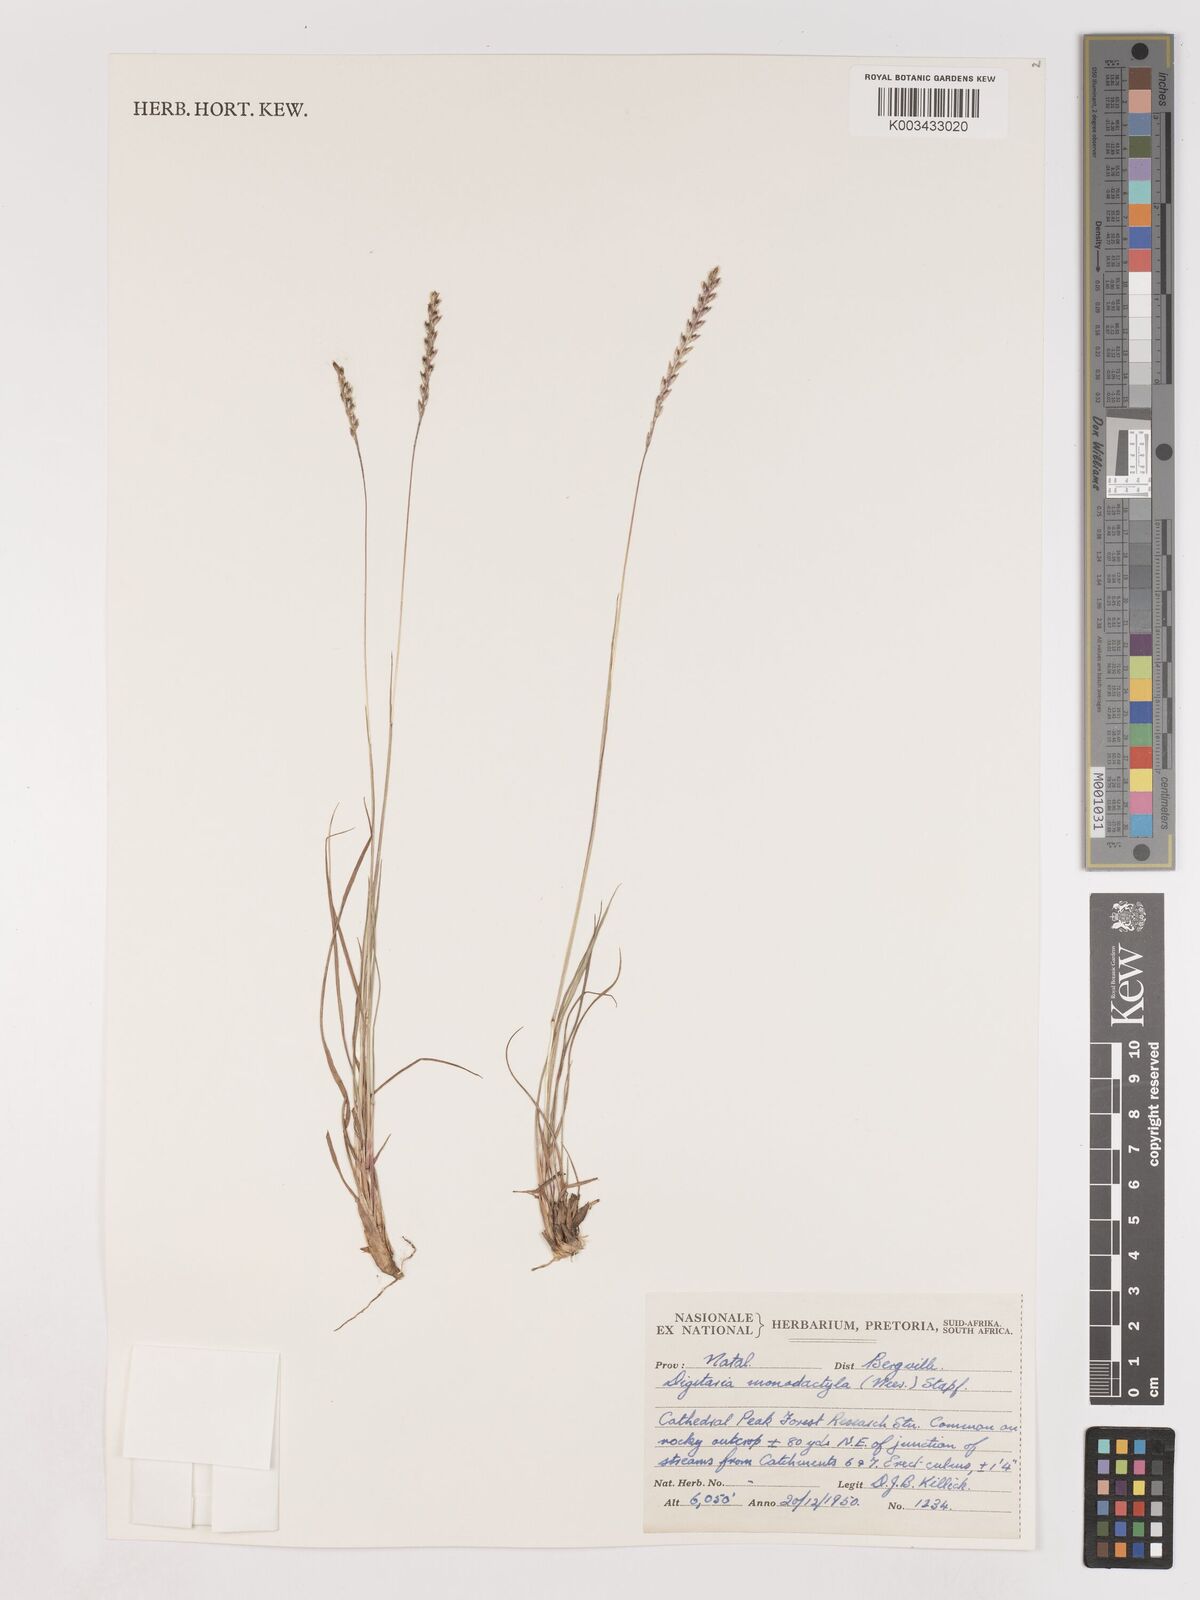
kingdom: Plantae
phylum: Tracheophyta
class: Liliopsida
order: Poales
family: Poaceae
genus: Digitaria
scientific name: Digitaria monodactyla
